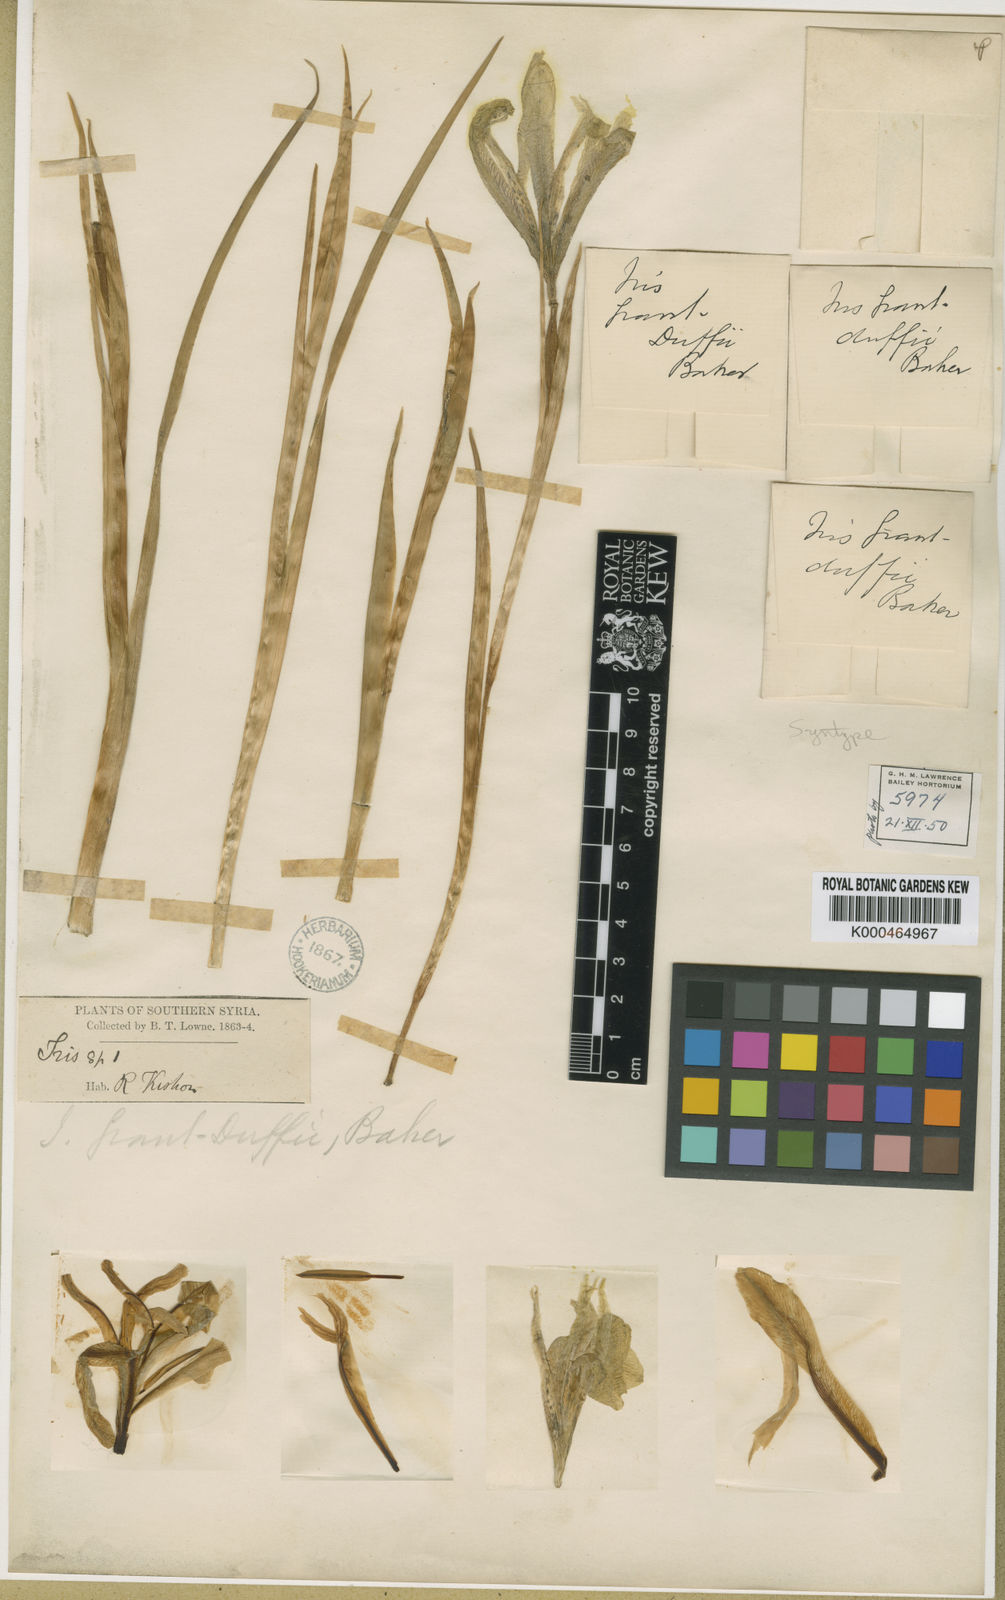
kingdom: Plantae
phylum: Tracheophyta
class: Liliopsida
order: Asparagales
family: Iridaceae
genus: Iris
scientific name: Iris grant-duffii
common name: Grant duff's iris
